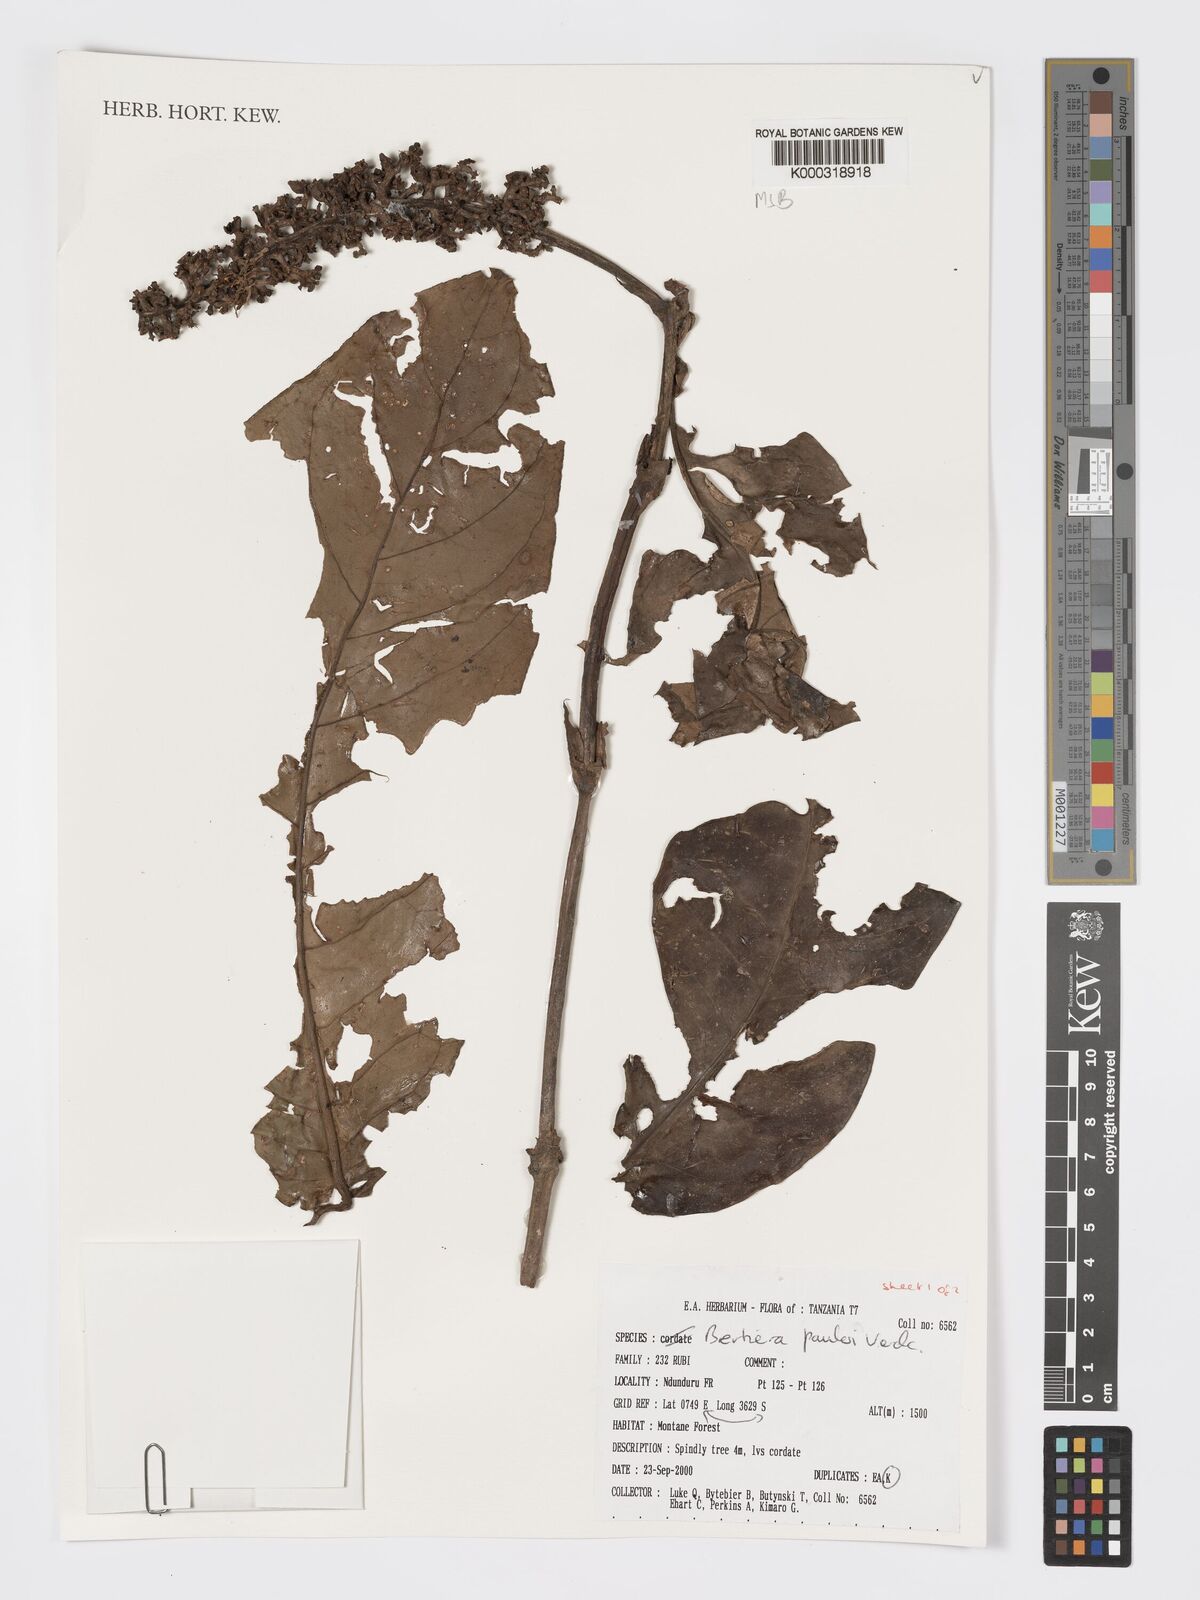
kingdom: Plantae
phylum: Tracheophyta
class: Magnoliopsida
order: Gentianales
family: Rubiaceae
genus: Bertiera
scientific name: Bertiera pauloi
